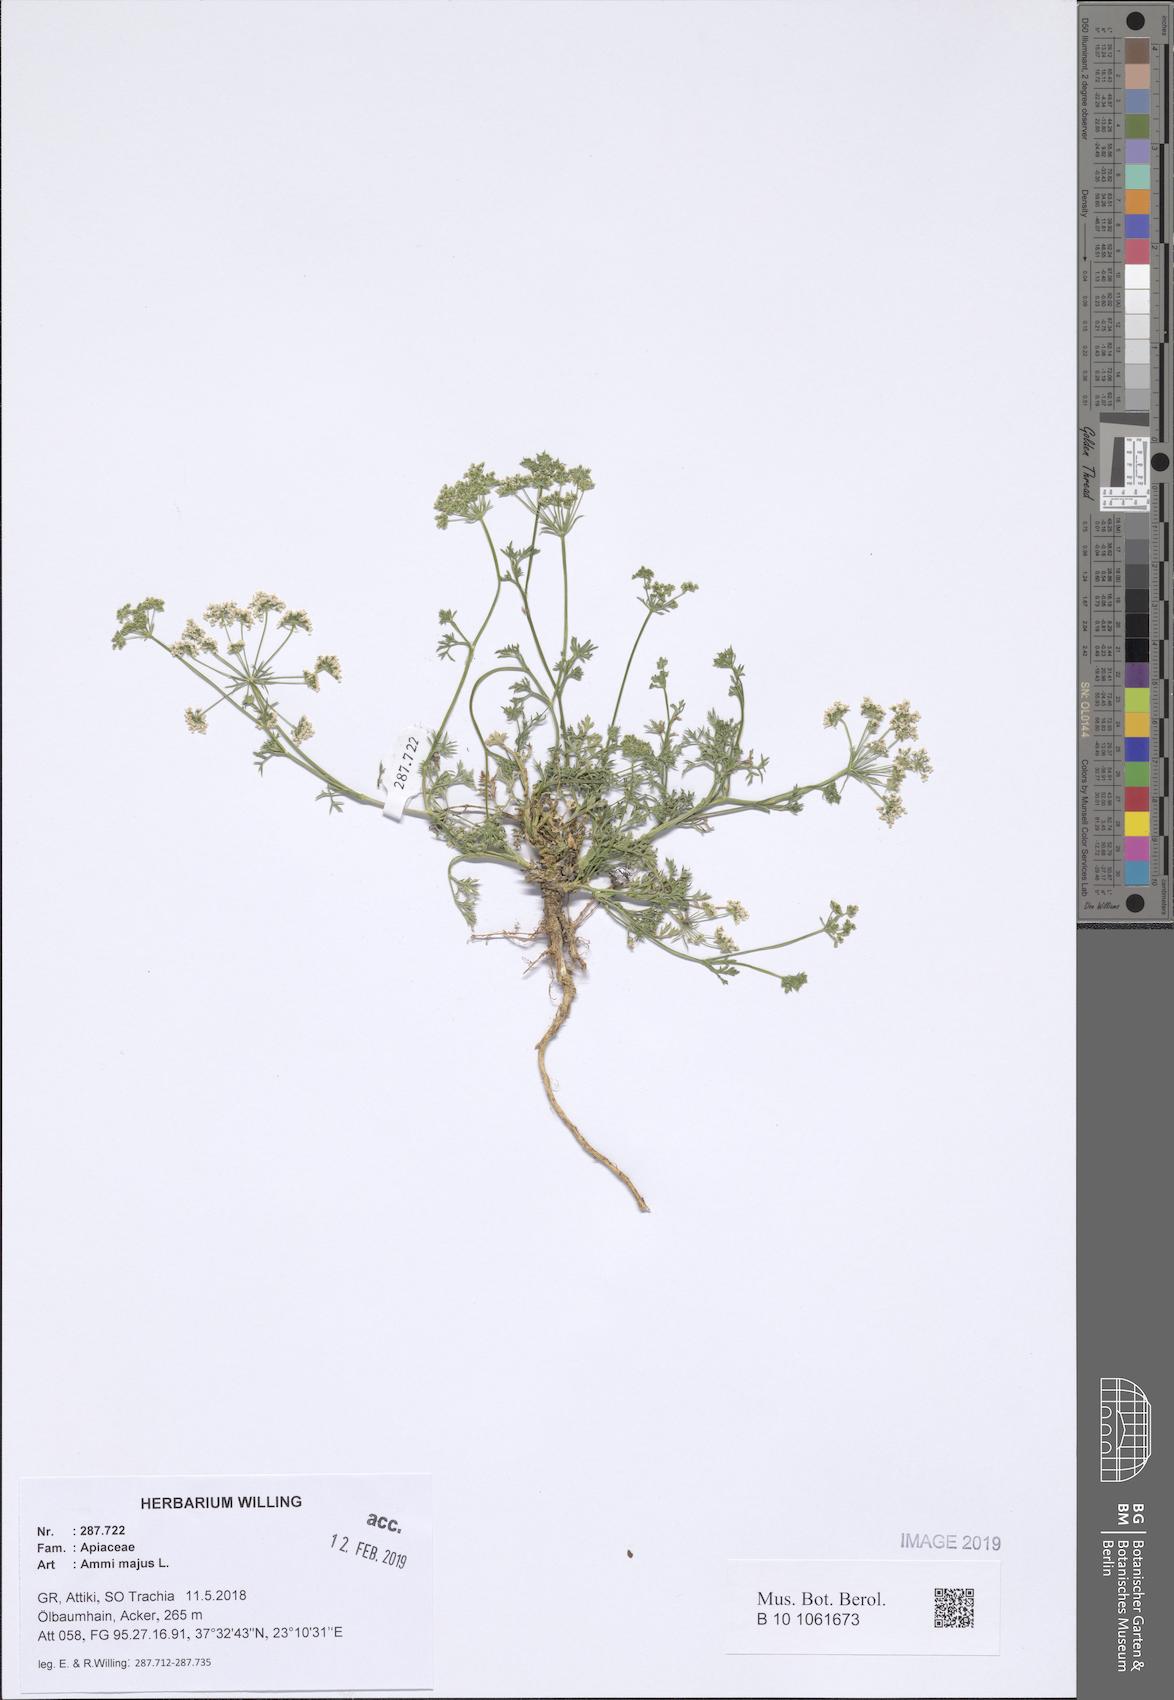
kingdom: Plantae
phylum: Tracheophyta
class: Magnoliopsida
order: Apiales
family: Apiaceae
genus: Ammi
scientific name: Ammi majus
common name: Bullwort
